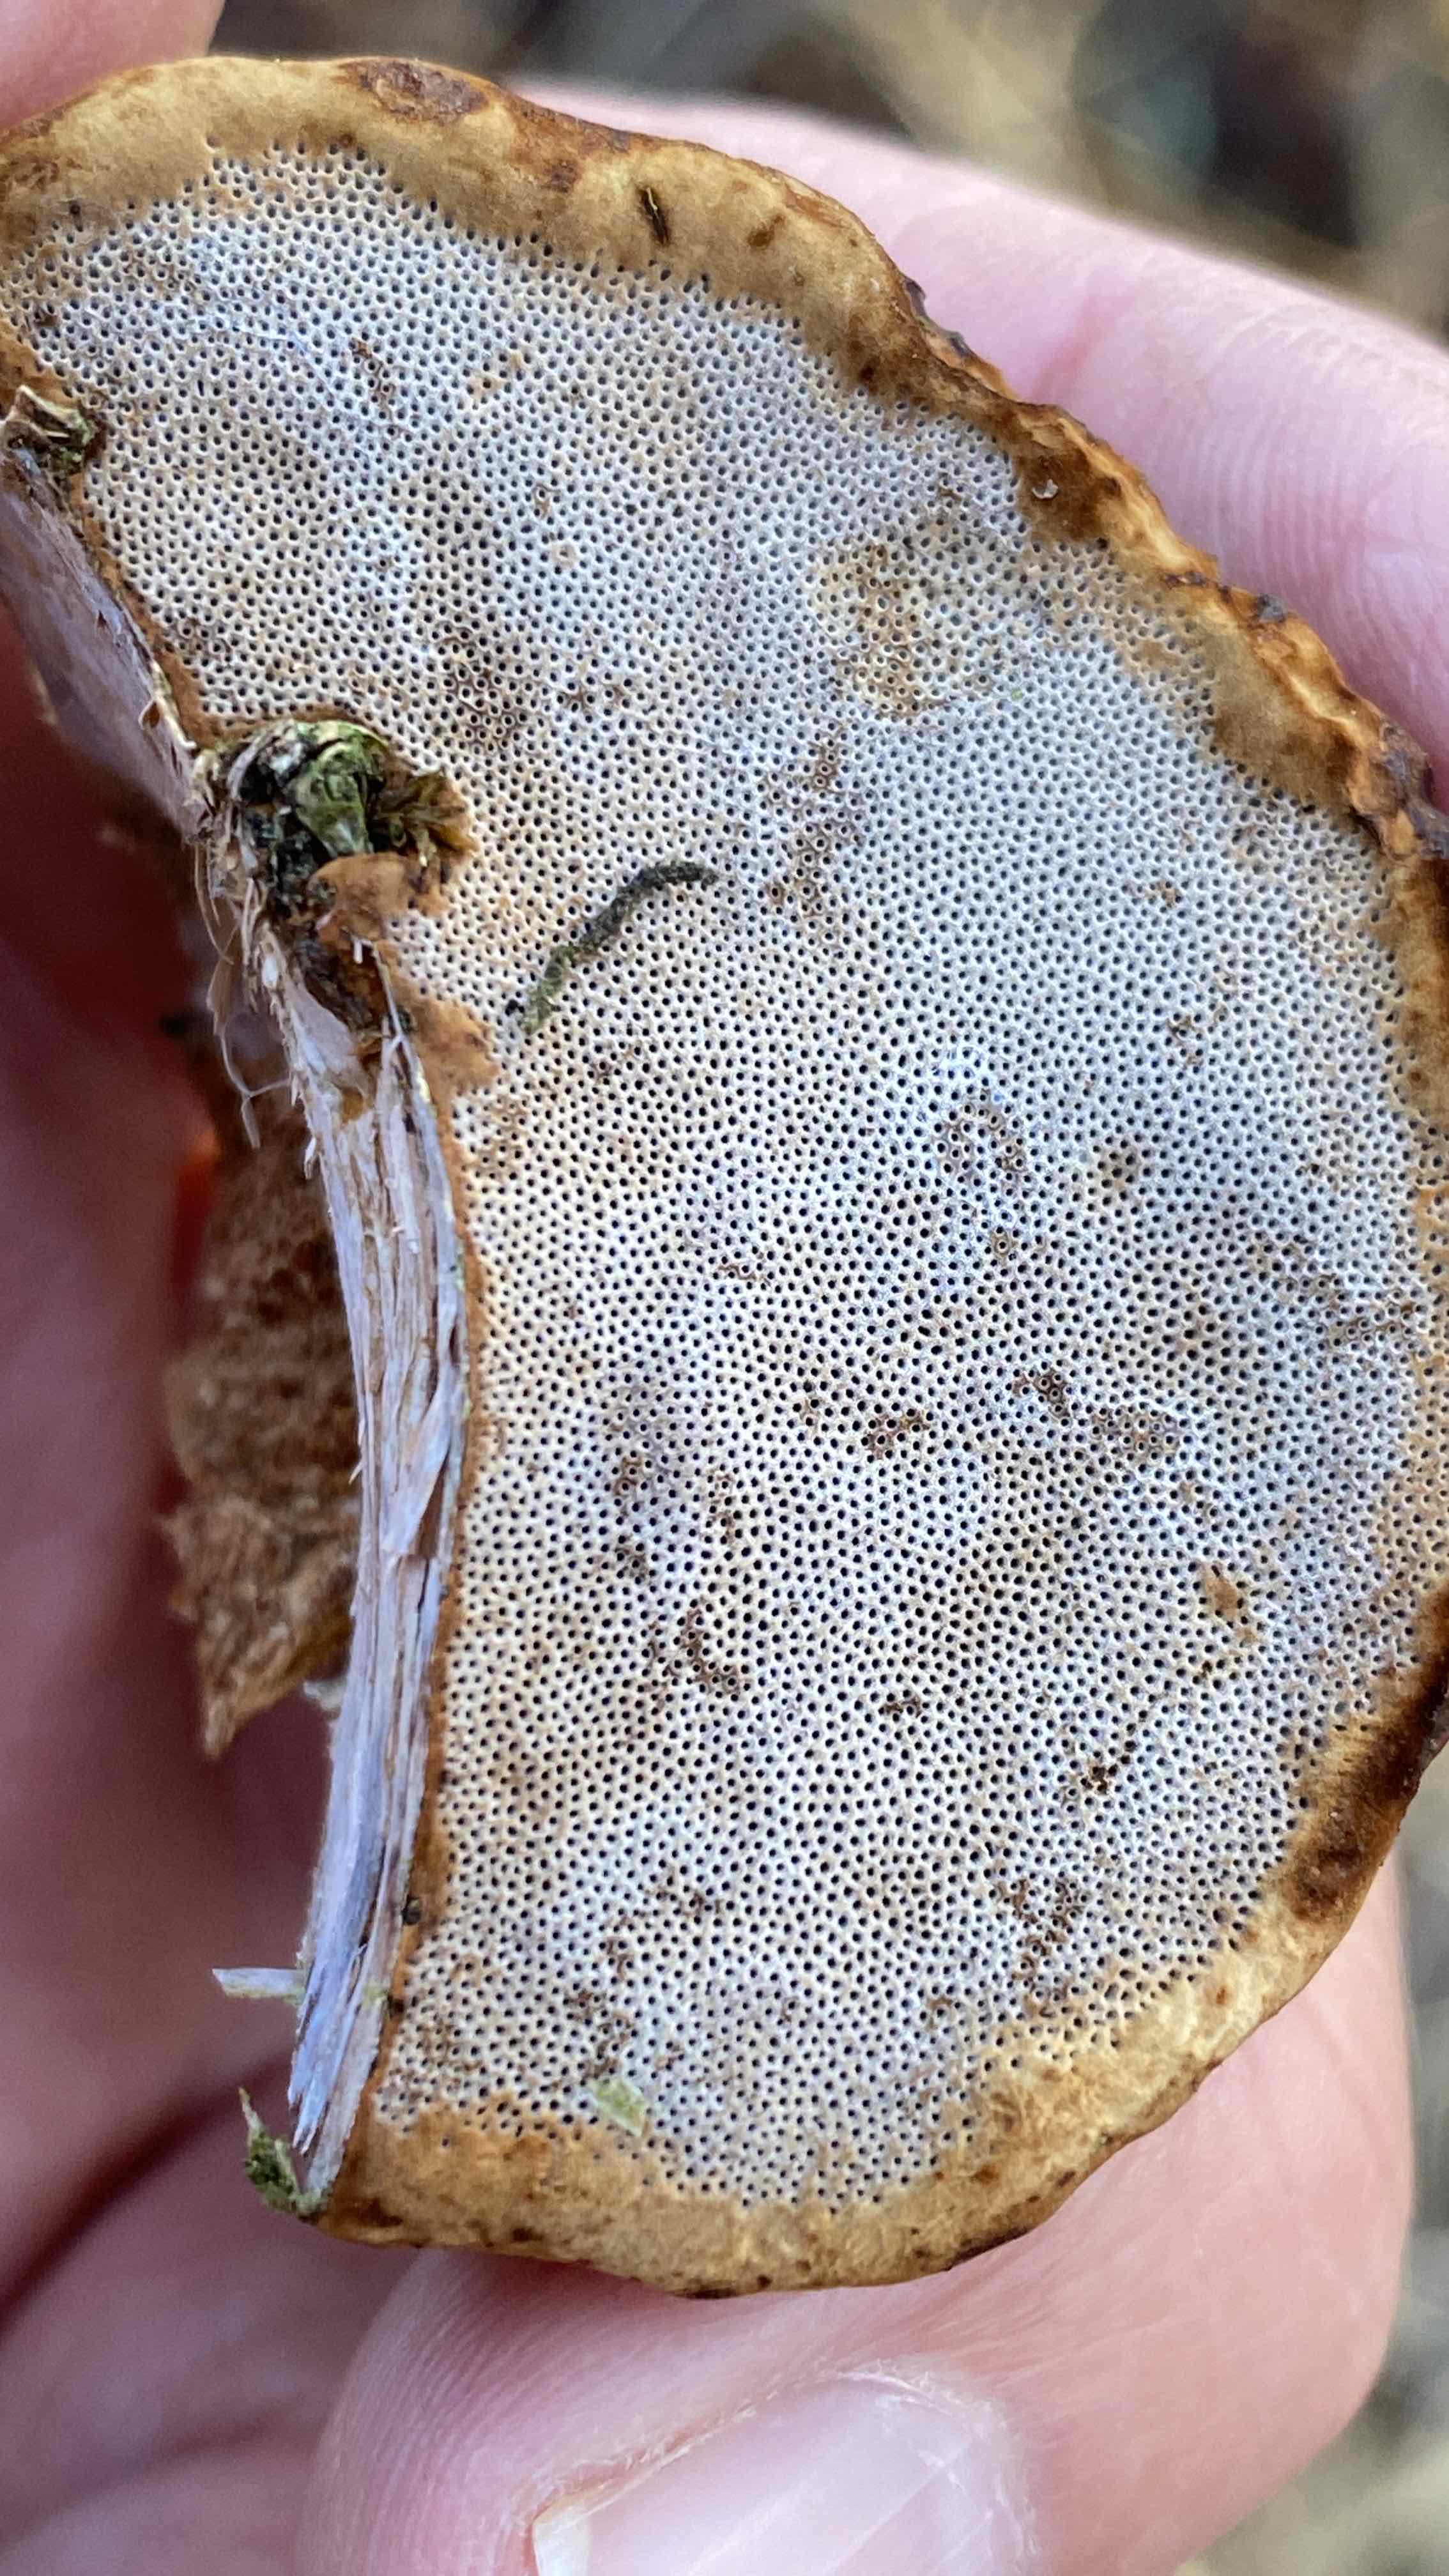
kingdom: Fungi
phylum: Basidiomycota
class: Agaricomycetes
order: Polyporales
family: Polyporaceae
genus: Fomes
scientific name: Fomes fomentarius
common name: tøndersvamp
